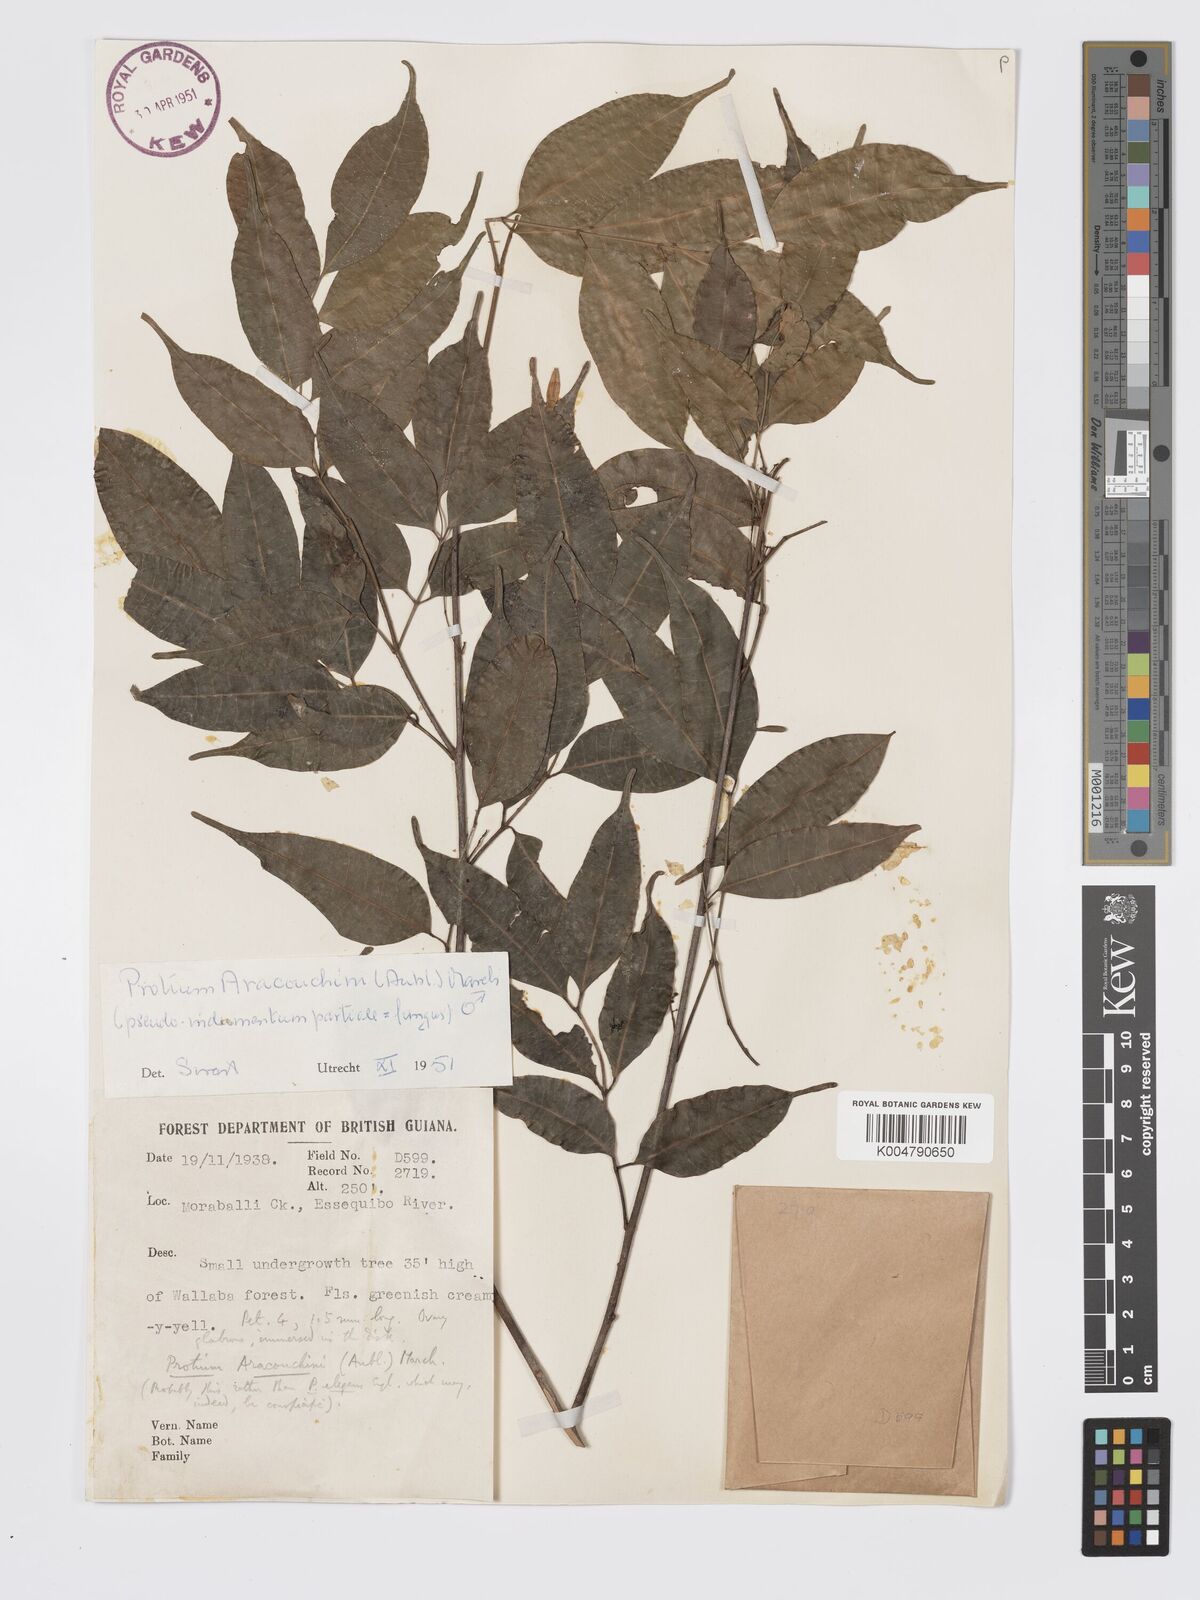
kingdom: Plantae
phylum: Tracheophyta
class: Magnoliopsida
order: Sapindales
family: Burseraceae
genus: Protium
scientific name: Protium aracouchini
